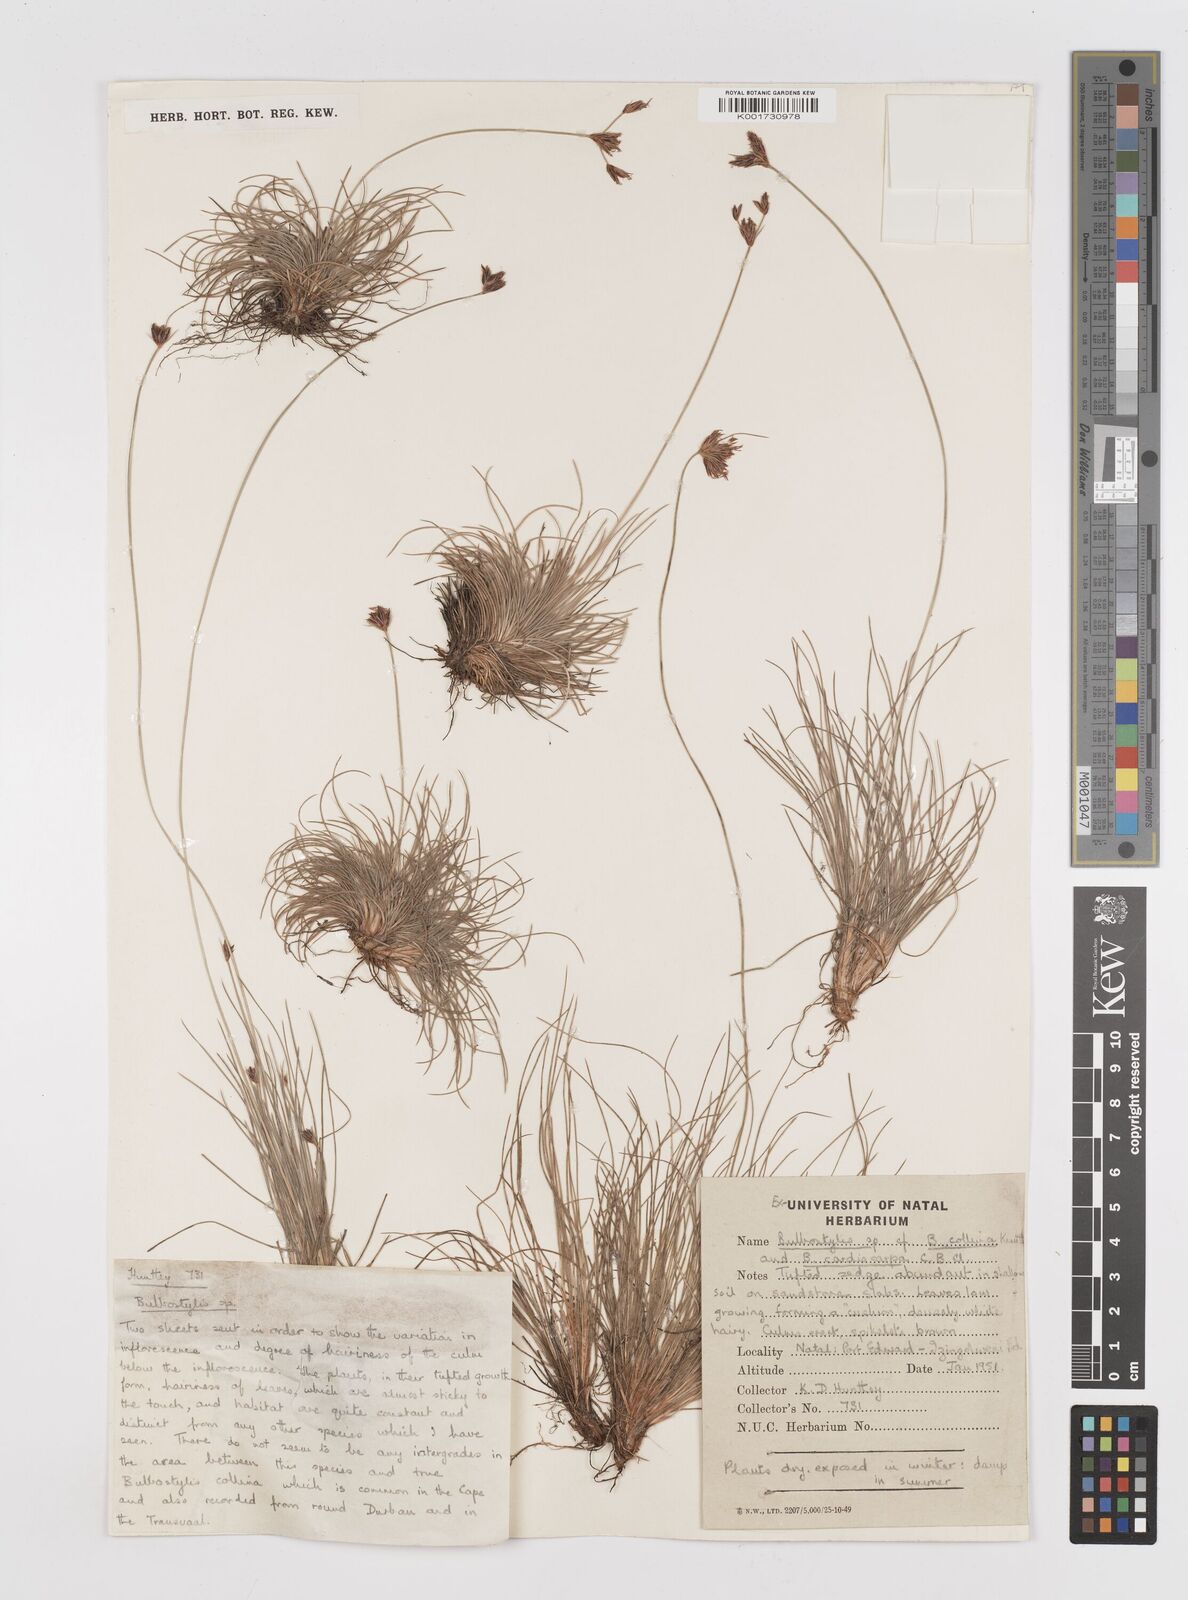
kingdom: Plantae
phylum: Tracheophyta
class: Liliopsida
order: Poales
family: Cyperaceae
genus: Bulbostylis
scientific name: Bulbostylis
